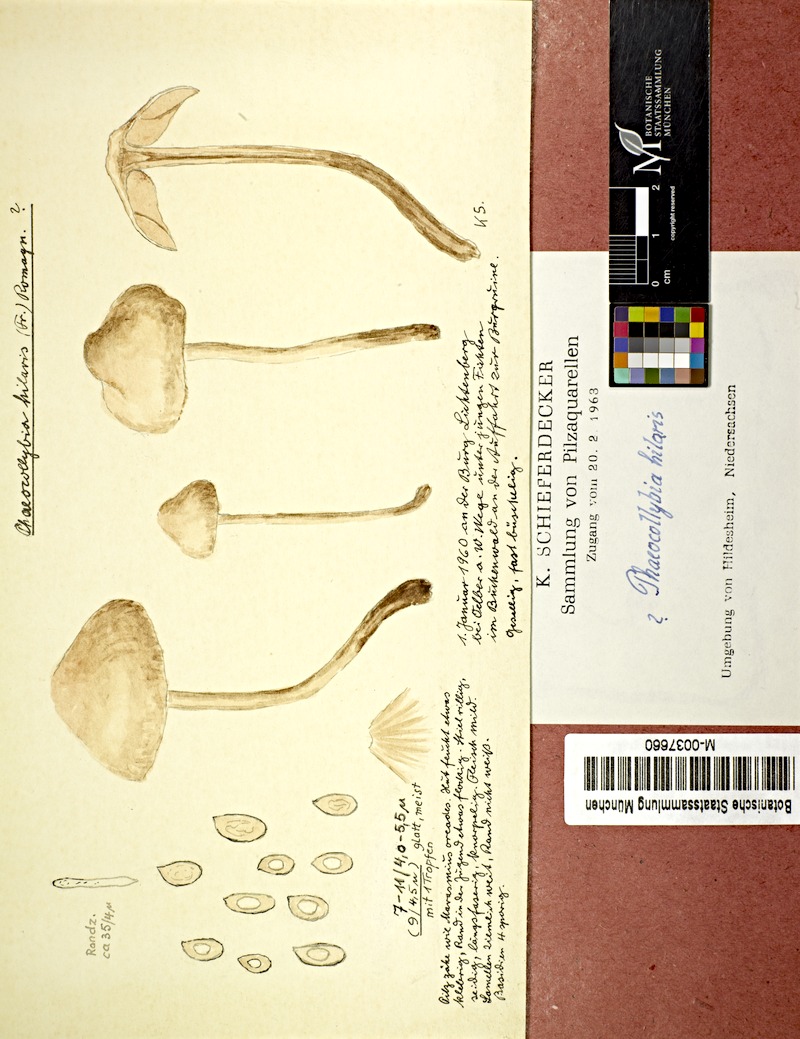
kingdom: Fungi
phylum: Basidiomycota
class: Agaricomycetes
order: Agaricales
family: Hymenogastraceae
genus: Phaeocollybia
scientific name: Phaeocollybia christinae
